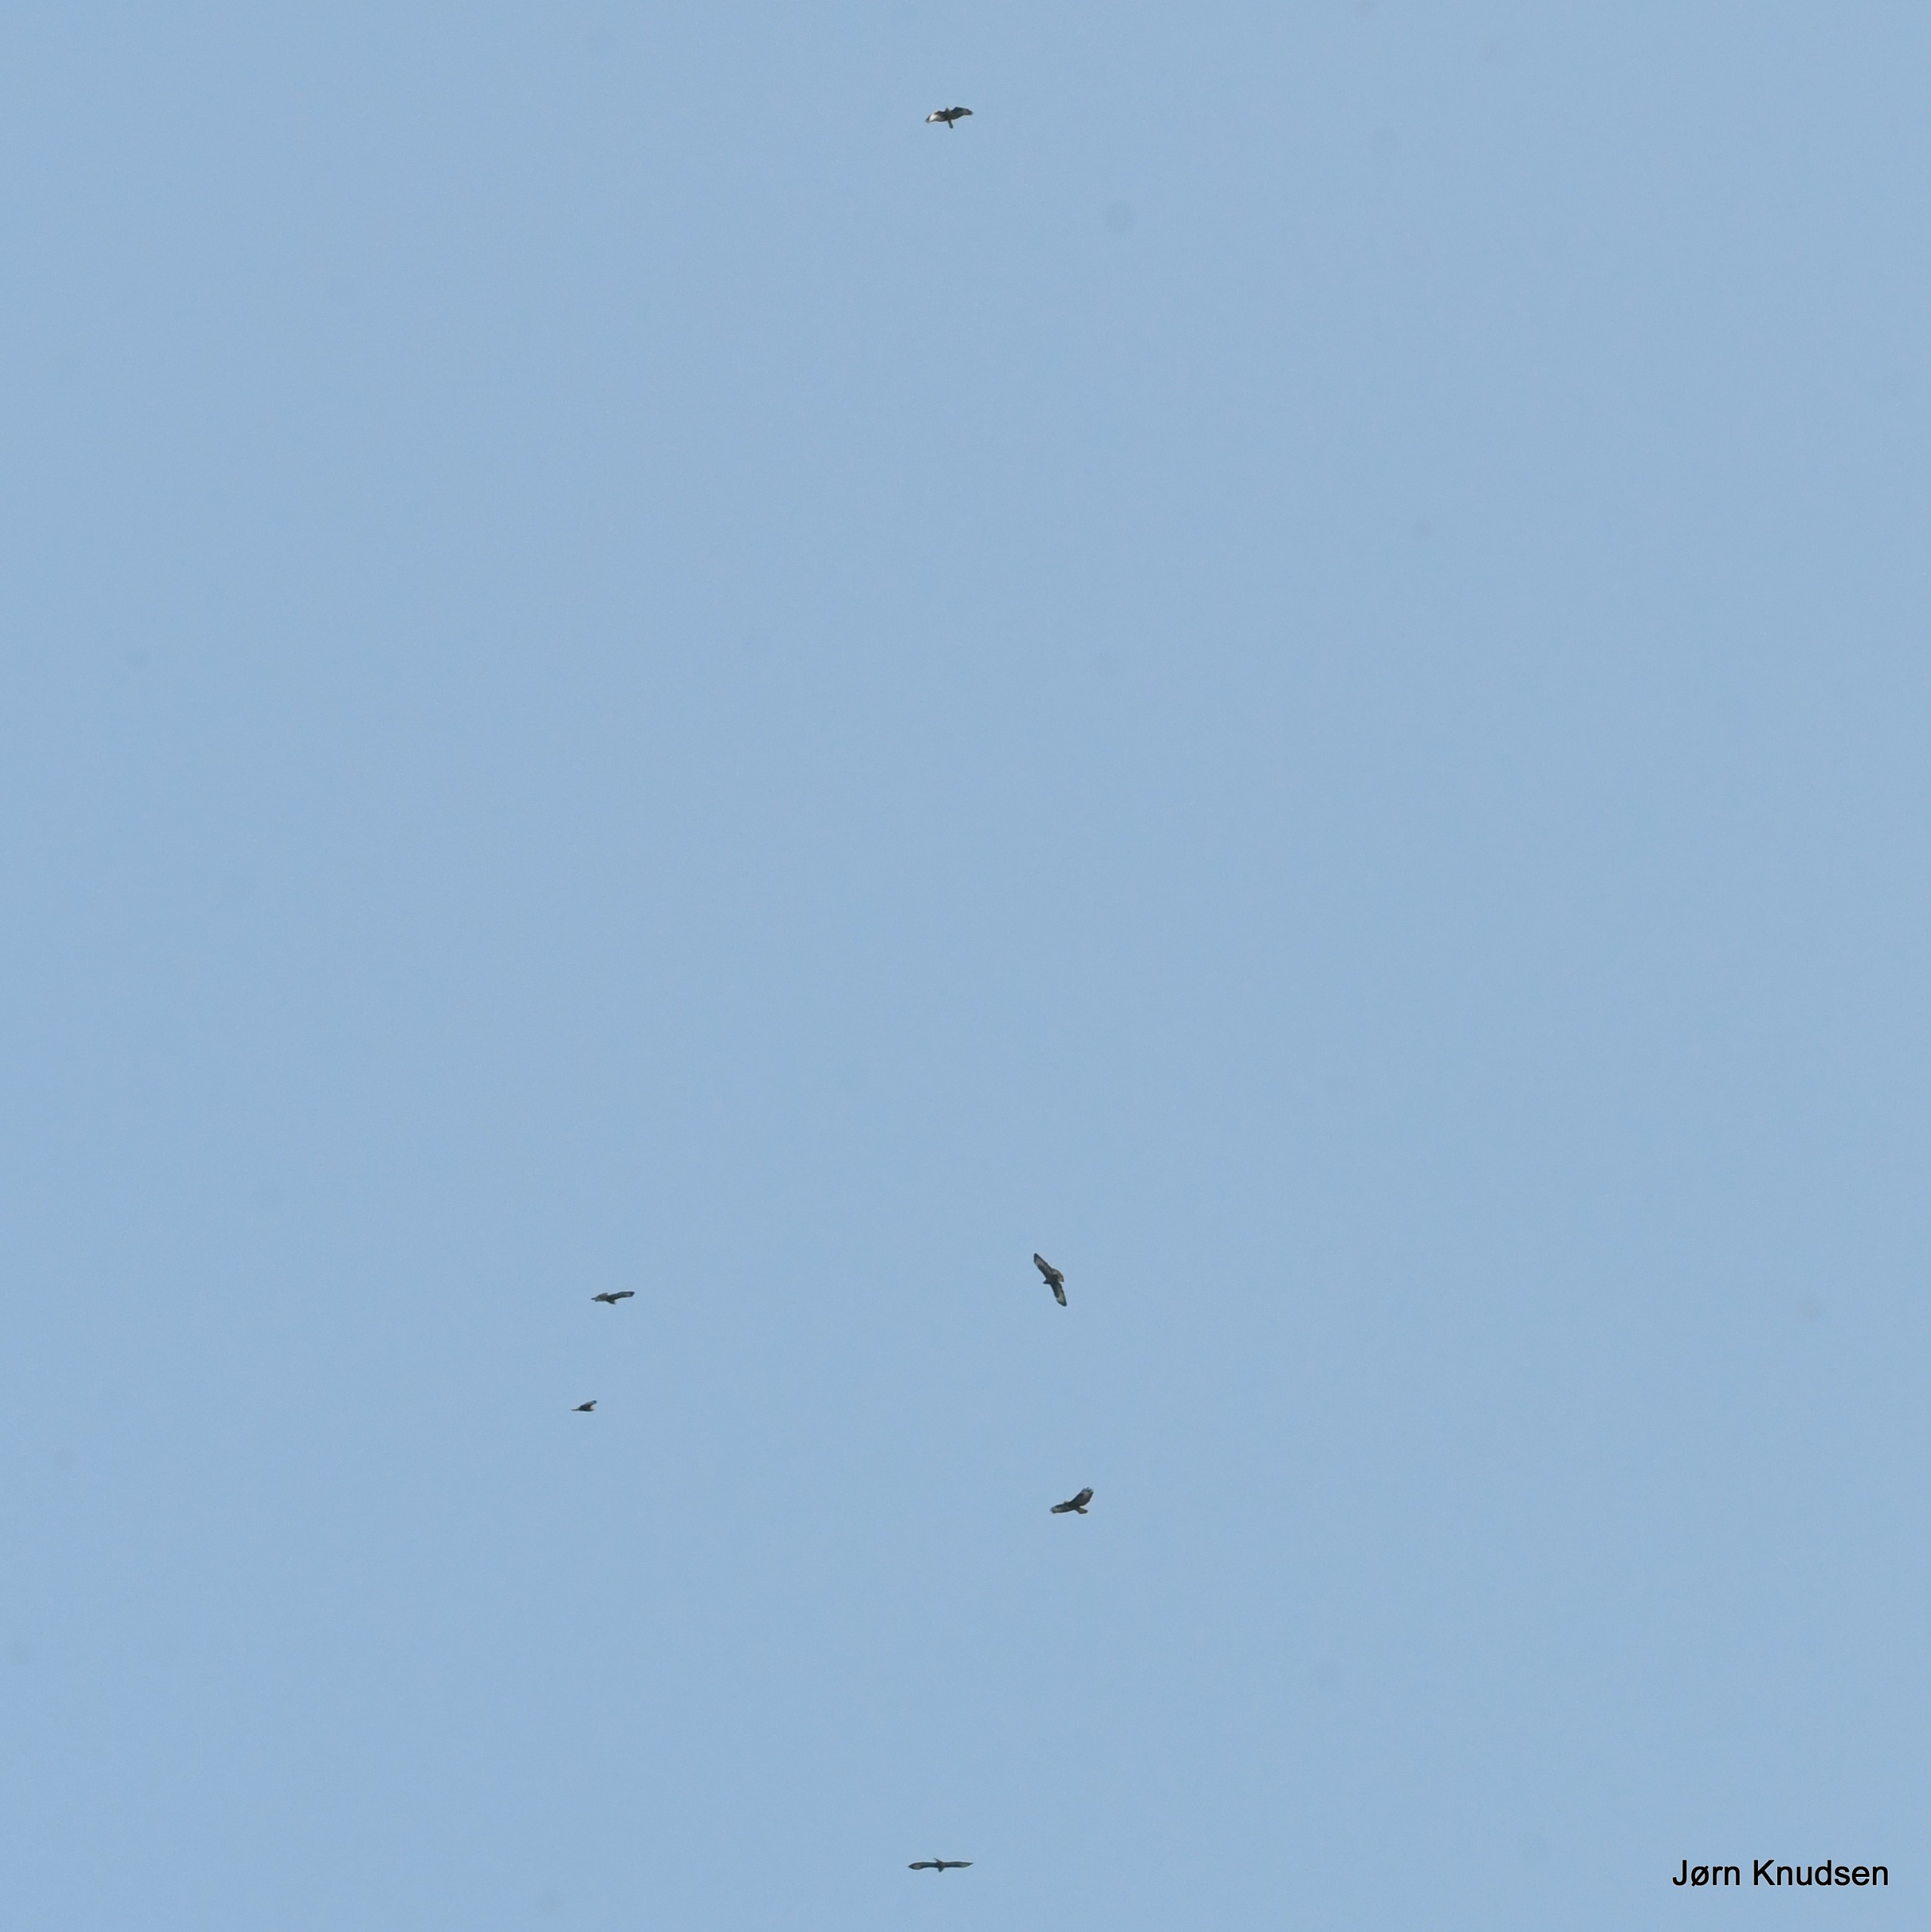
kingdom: Animalia
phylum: Chordata
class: Aves
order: Accipitriformes
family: Accipitridae
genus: Buteo
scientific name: Buteo buteo
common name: Musvåge
